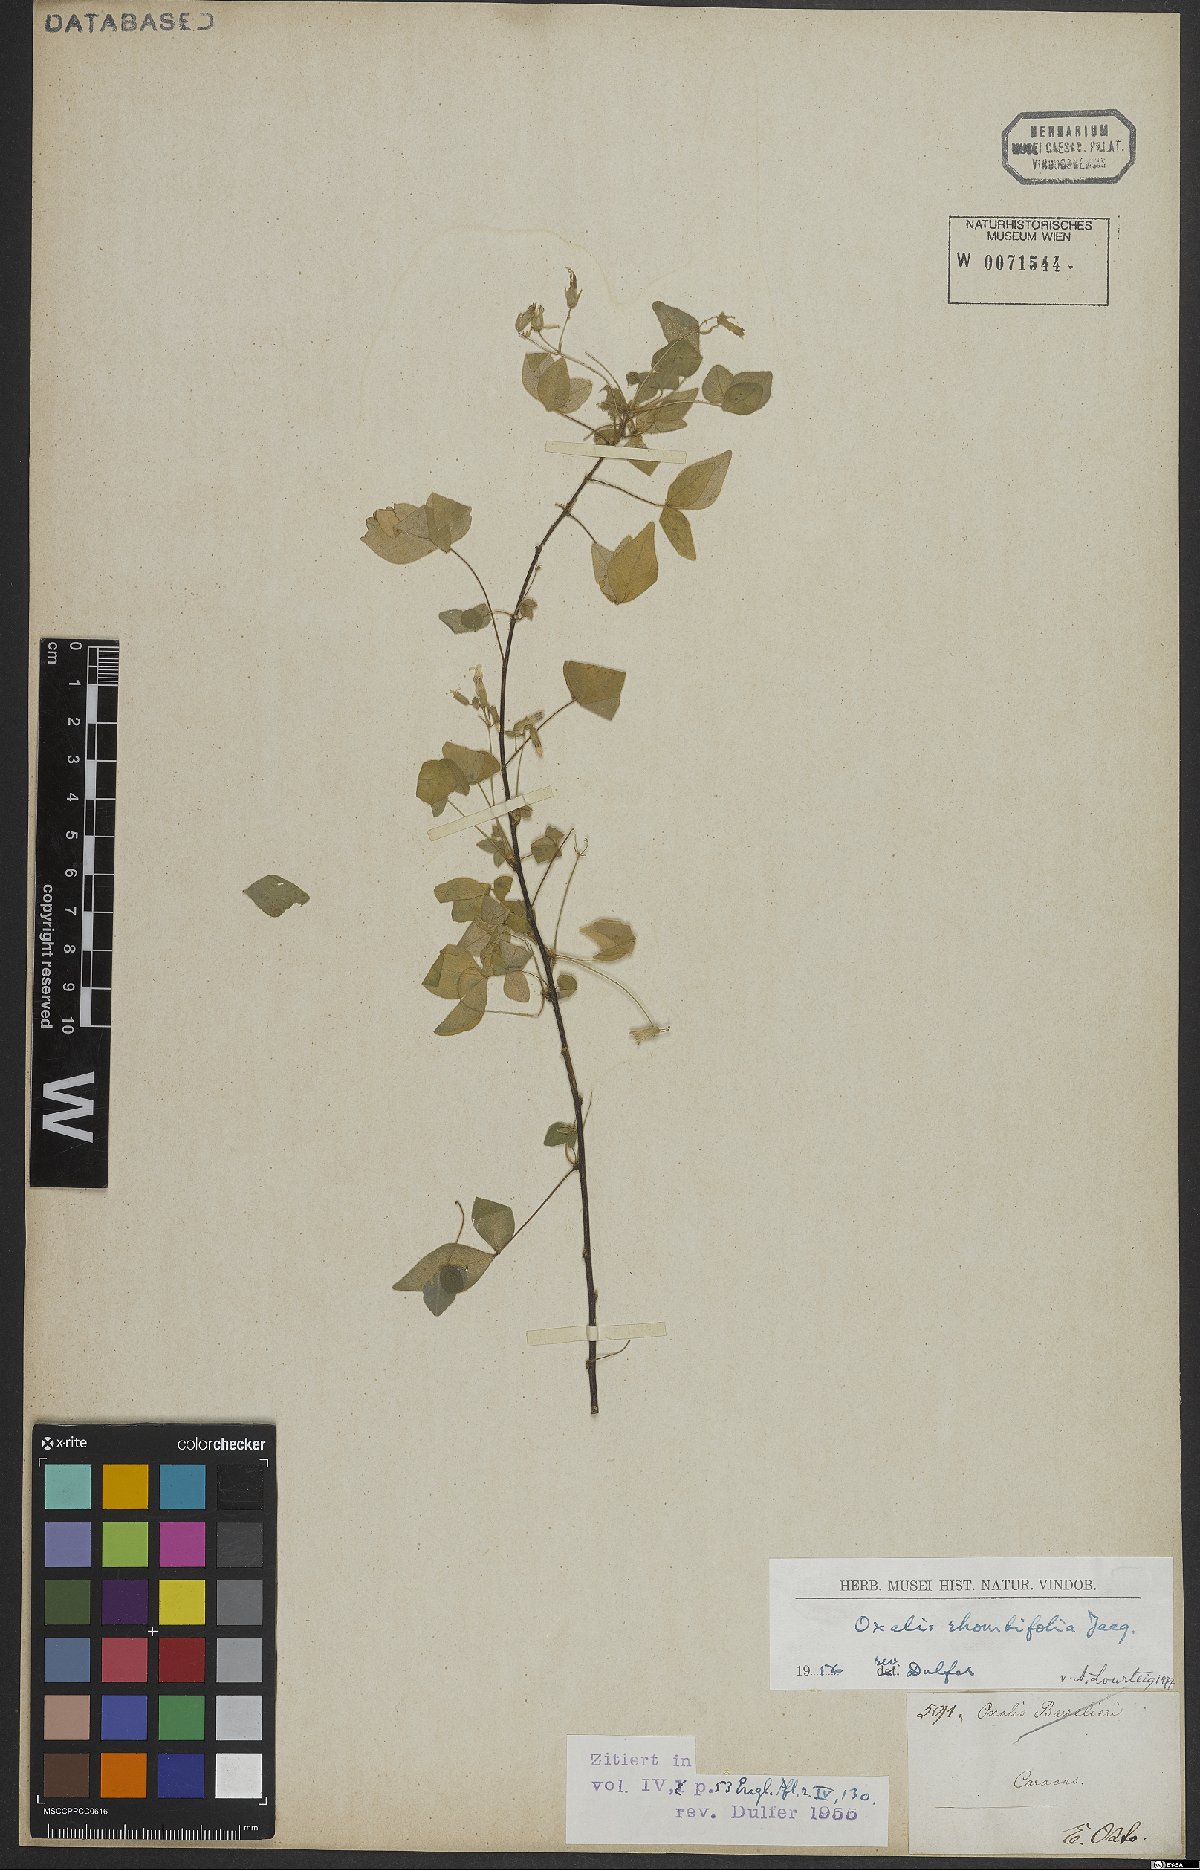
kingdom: Plantae
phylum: Tracheophyta
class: Magnoliopsida
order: Oxalidales
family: Oxalidaceae
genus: Oxalis
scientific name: Oxalis rhombifolia
